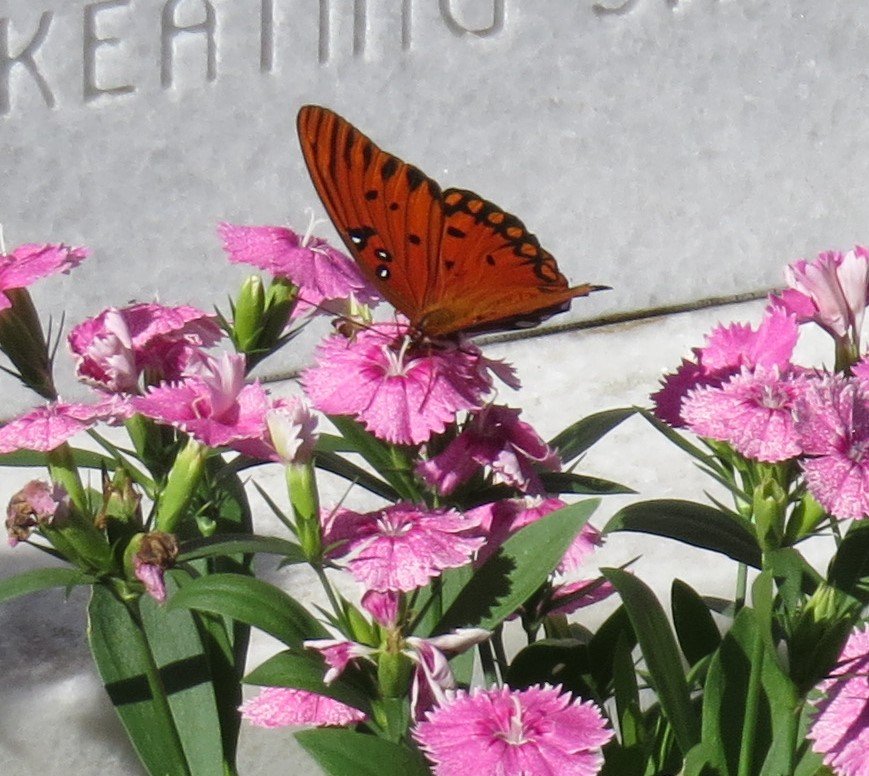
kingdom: Animalia
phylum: Arthropoda
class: Insecta
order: Lepidoptera
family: Nymphalidae
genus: Dione
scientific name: Dione vanillae
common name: Gulf Fritillary
